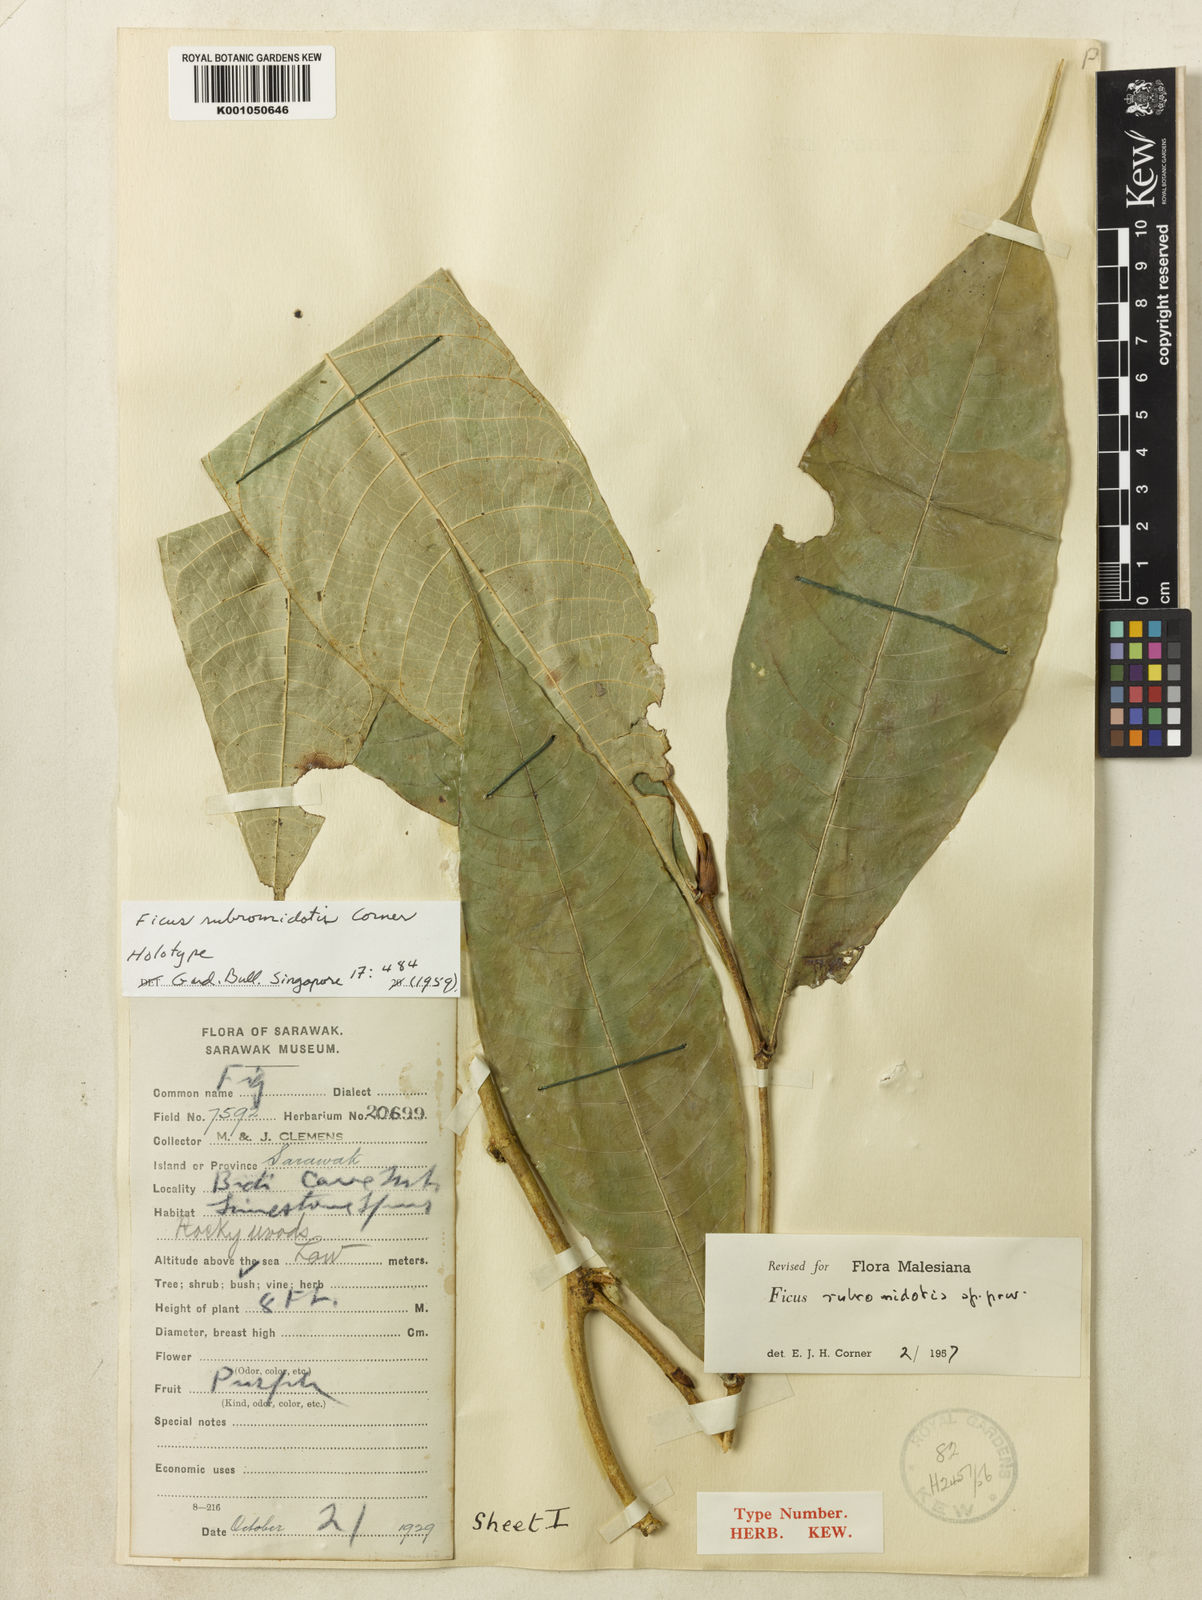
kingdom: Plantae
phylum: Tracheophyta
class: Magnoliopsida
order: Rosales
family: Moraceae
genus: Ficus
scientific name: Ficus rubromidotis
